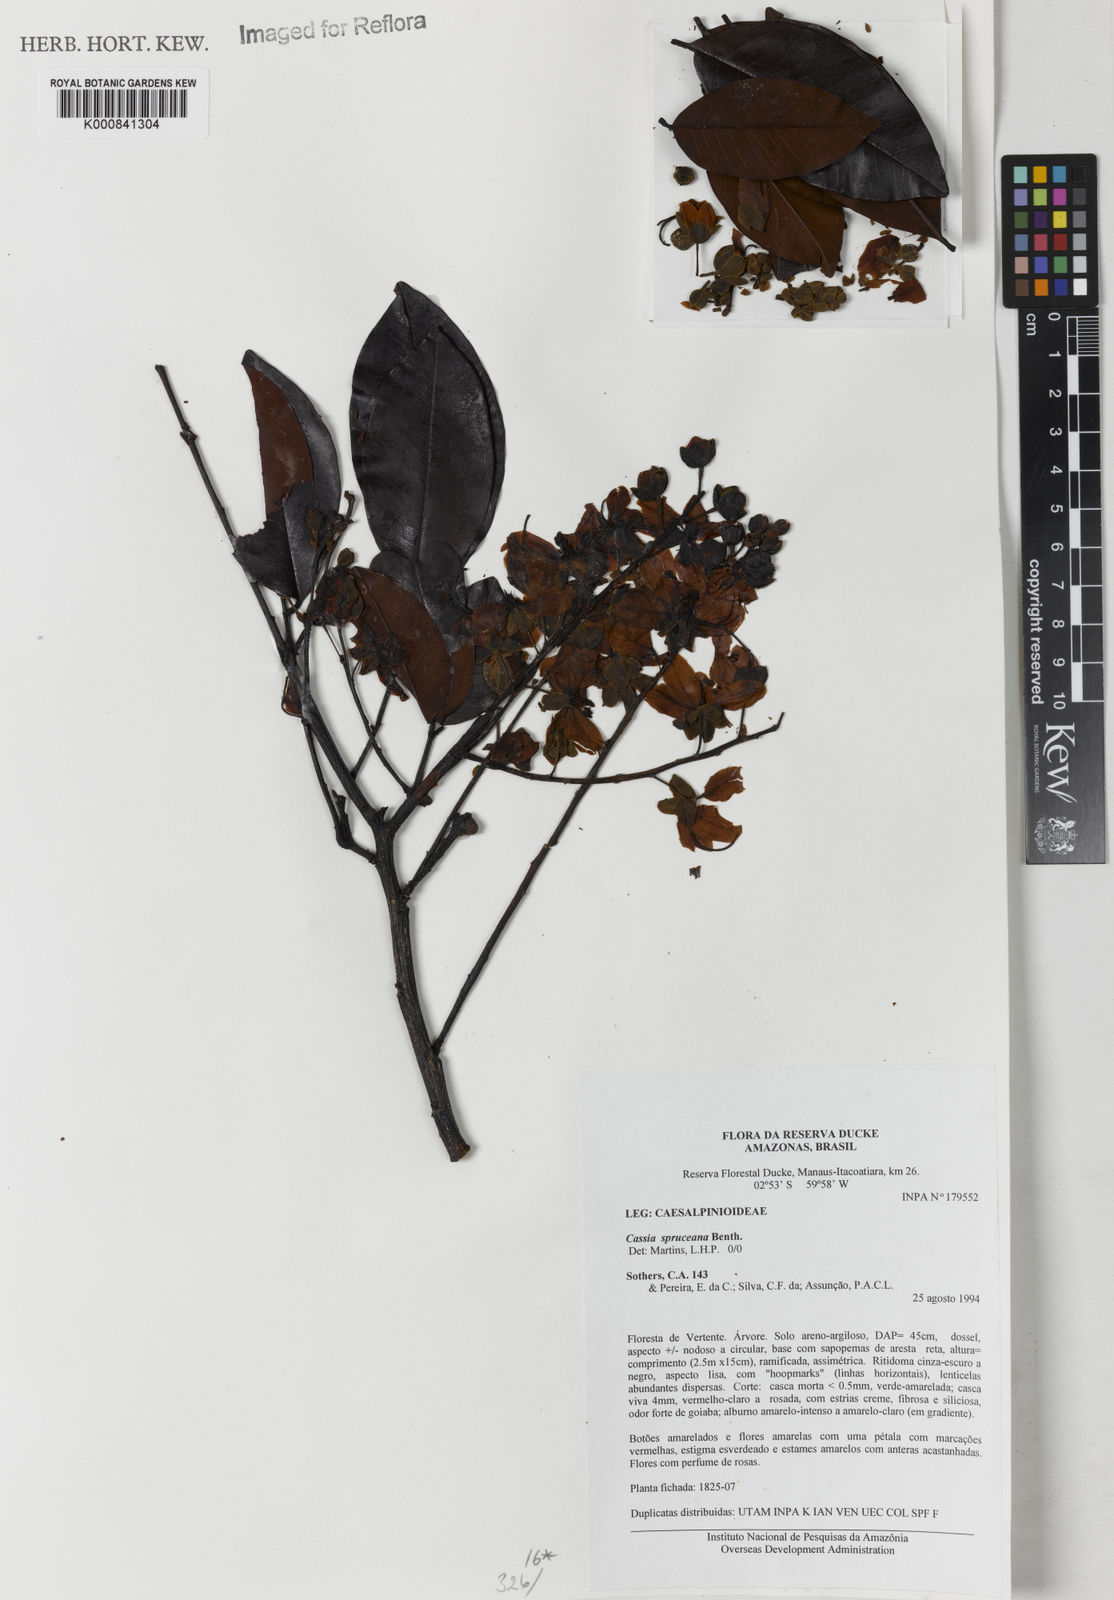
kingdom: Plantae
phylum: Tracheophyta
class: Magnoliopsida
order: Fabales
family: Fabaceae
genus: Cassia
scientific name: Cassia spruceana
